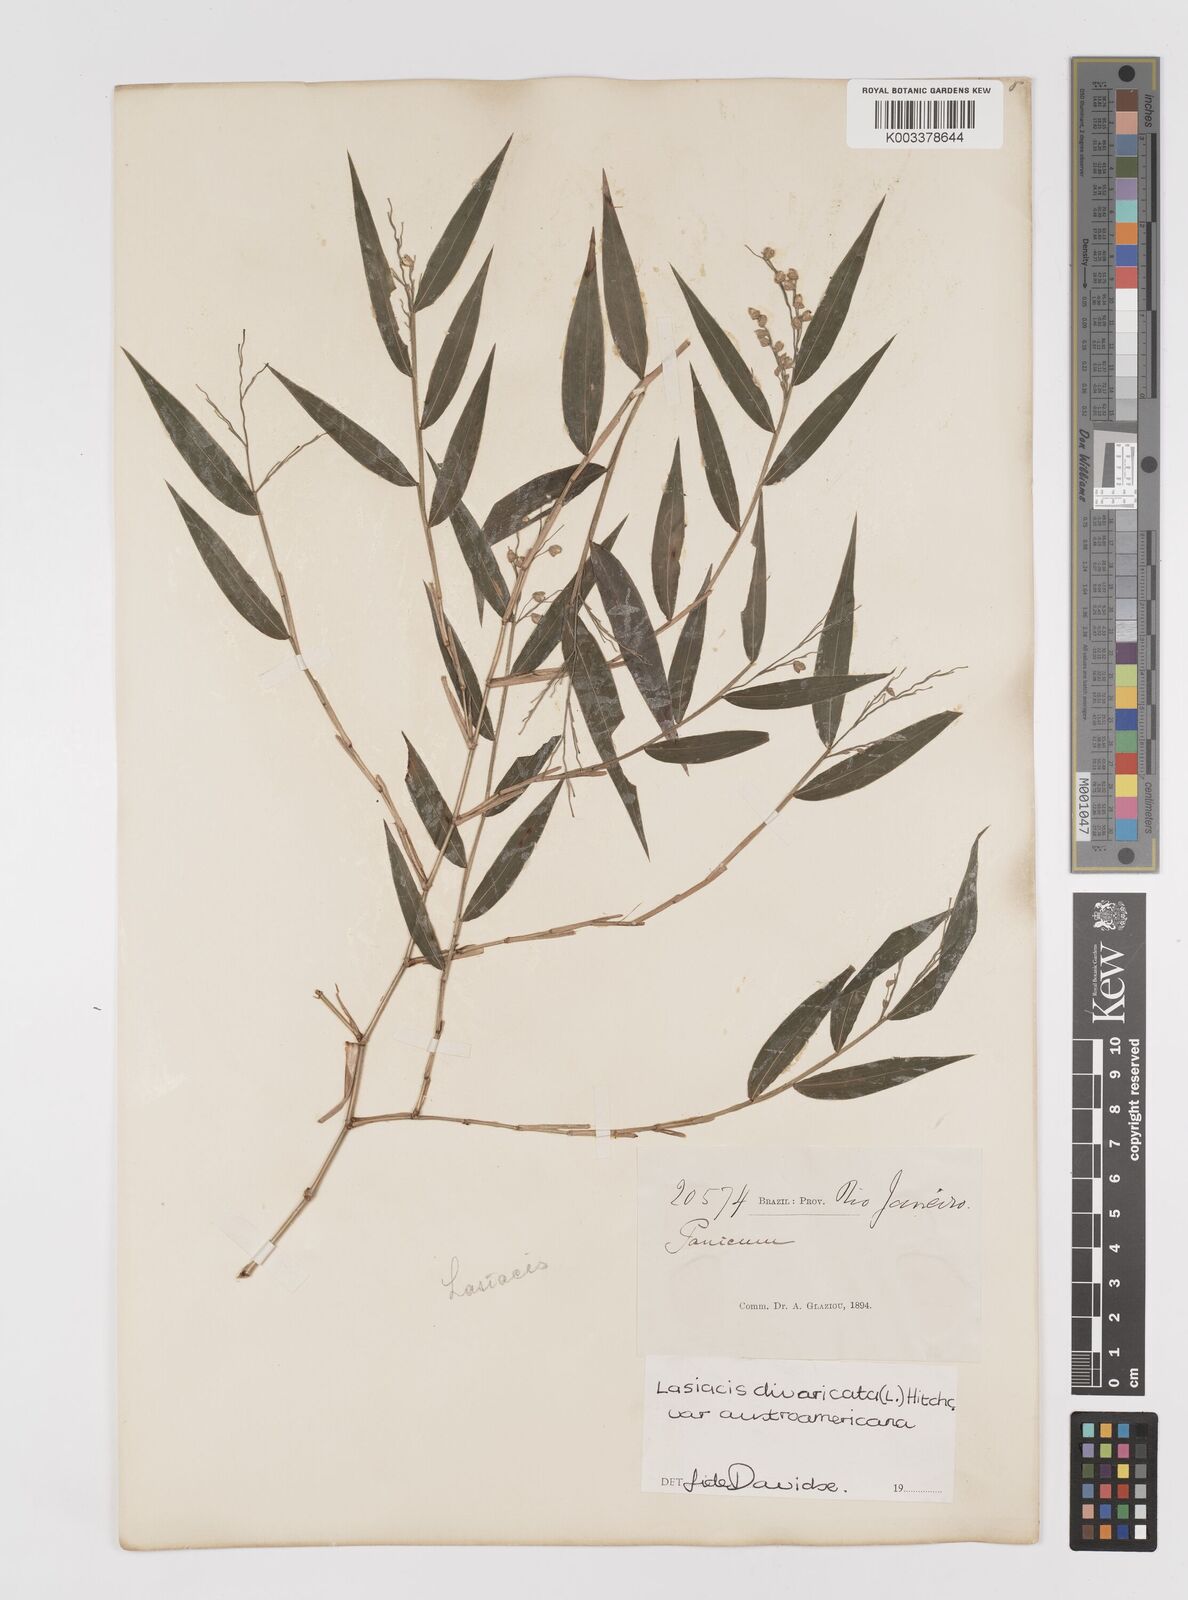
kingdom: Plantae
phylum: Tracheophyta
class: Liliopsida
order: Poales
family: Poaceae
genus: Lasiacis
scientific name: Lasiacis divaricata
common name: Smallcane
